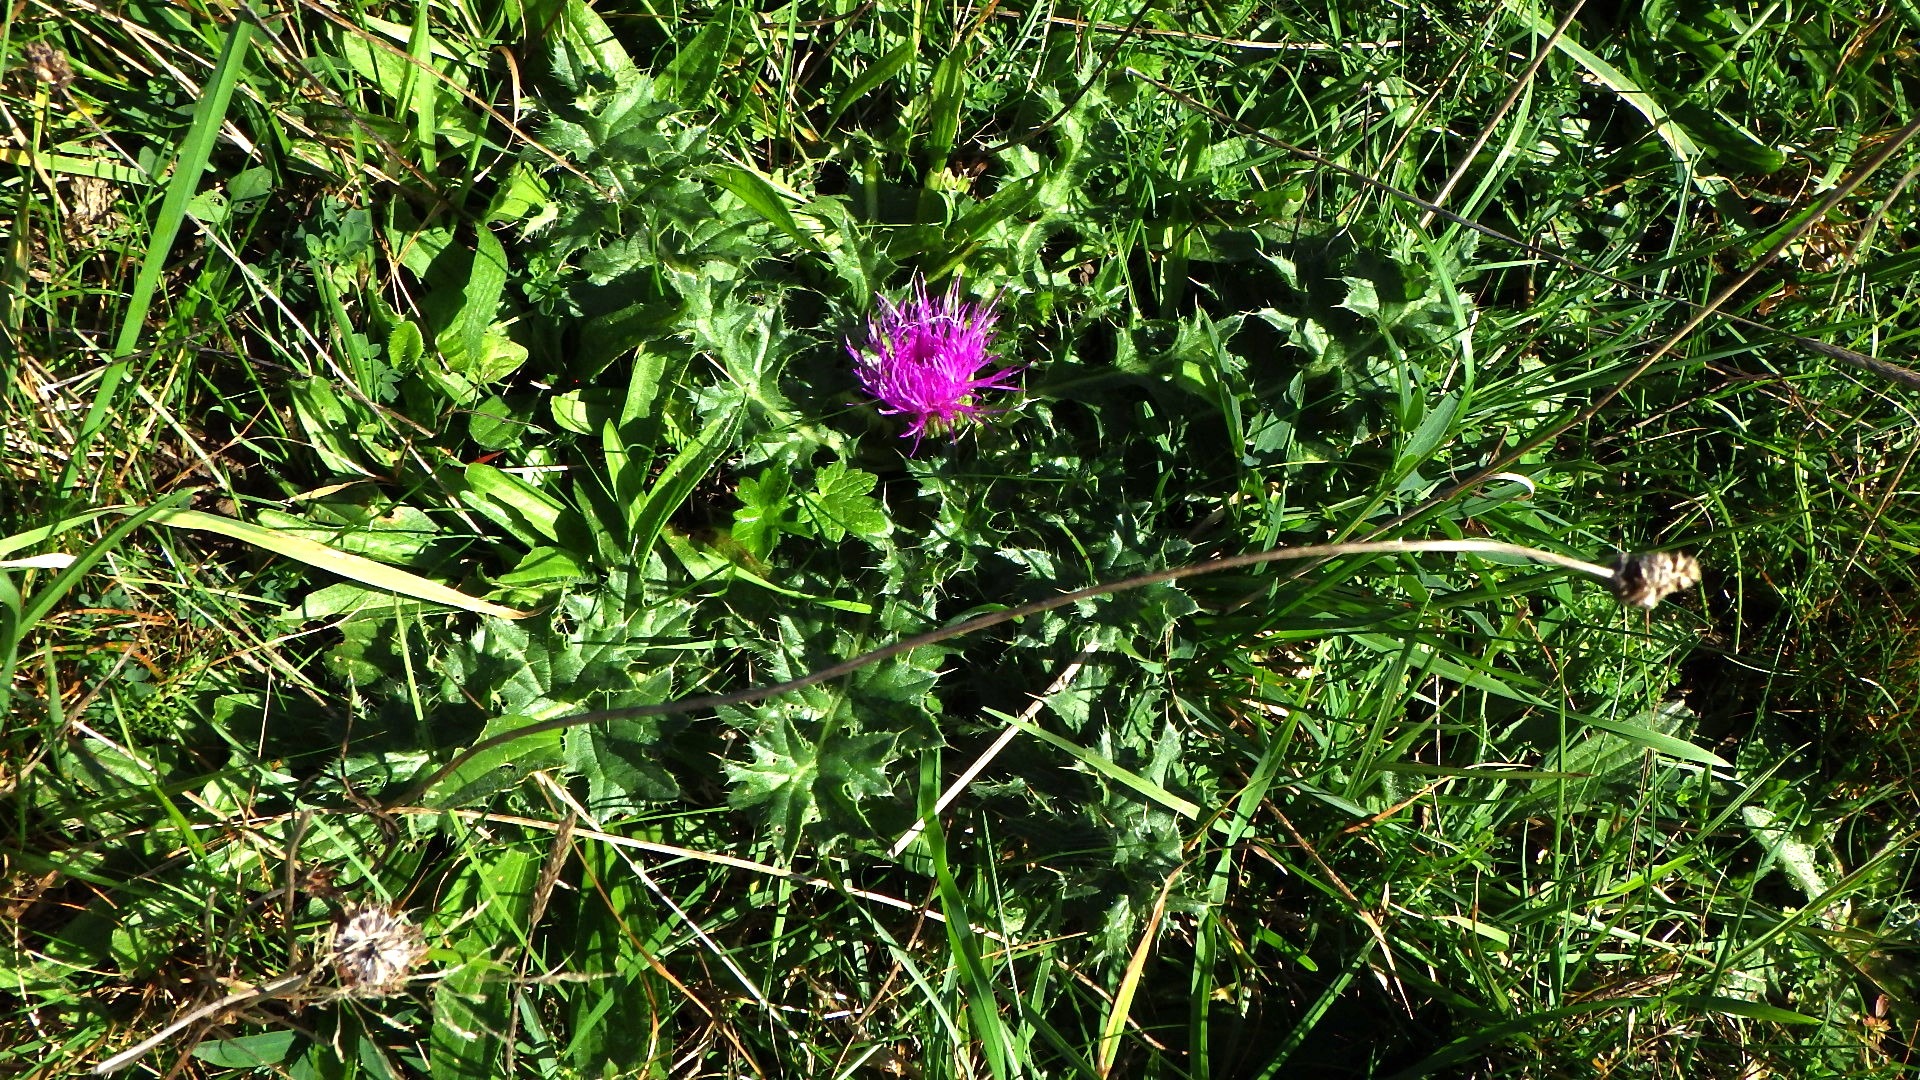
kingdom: Plantae
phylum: Tracheophyta
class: Magnoliopsida
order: Asterales
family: Asteraceae
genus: Cirsium
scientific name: Cirsium acaule
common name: Lav tidsel
